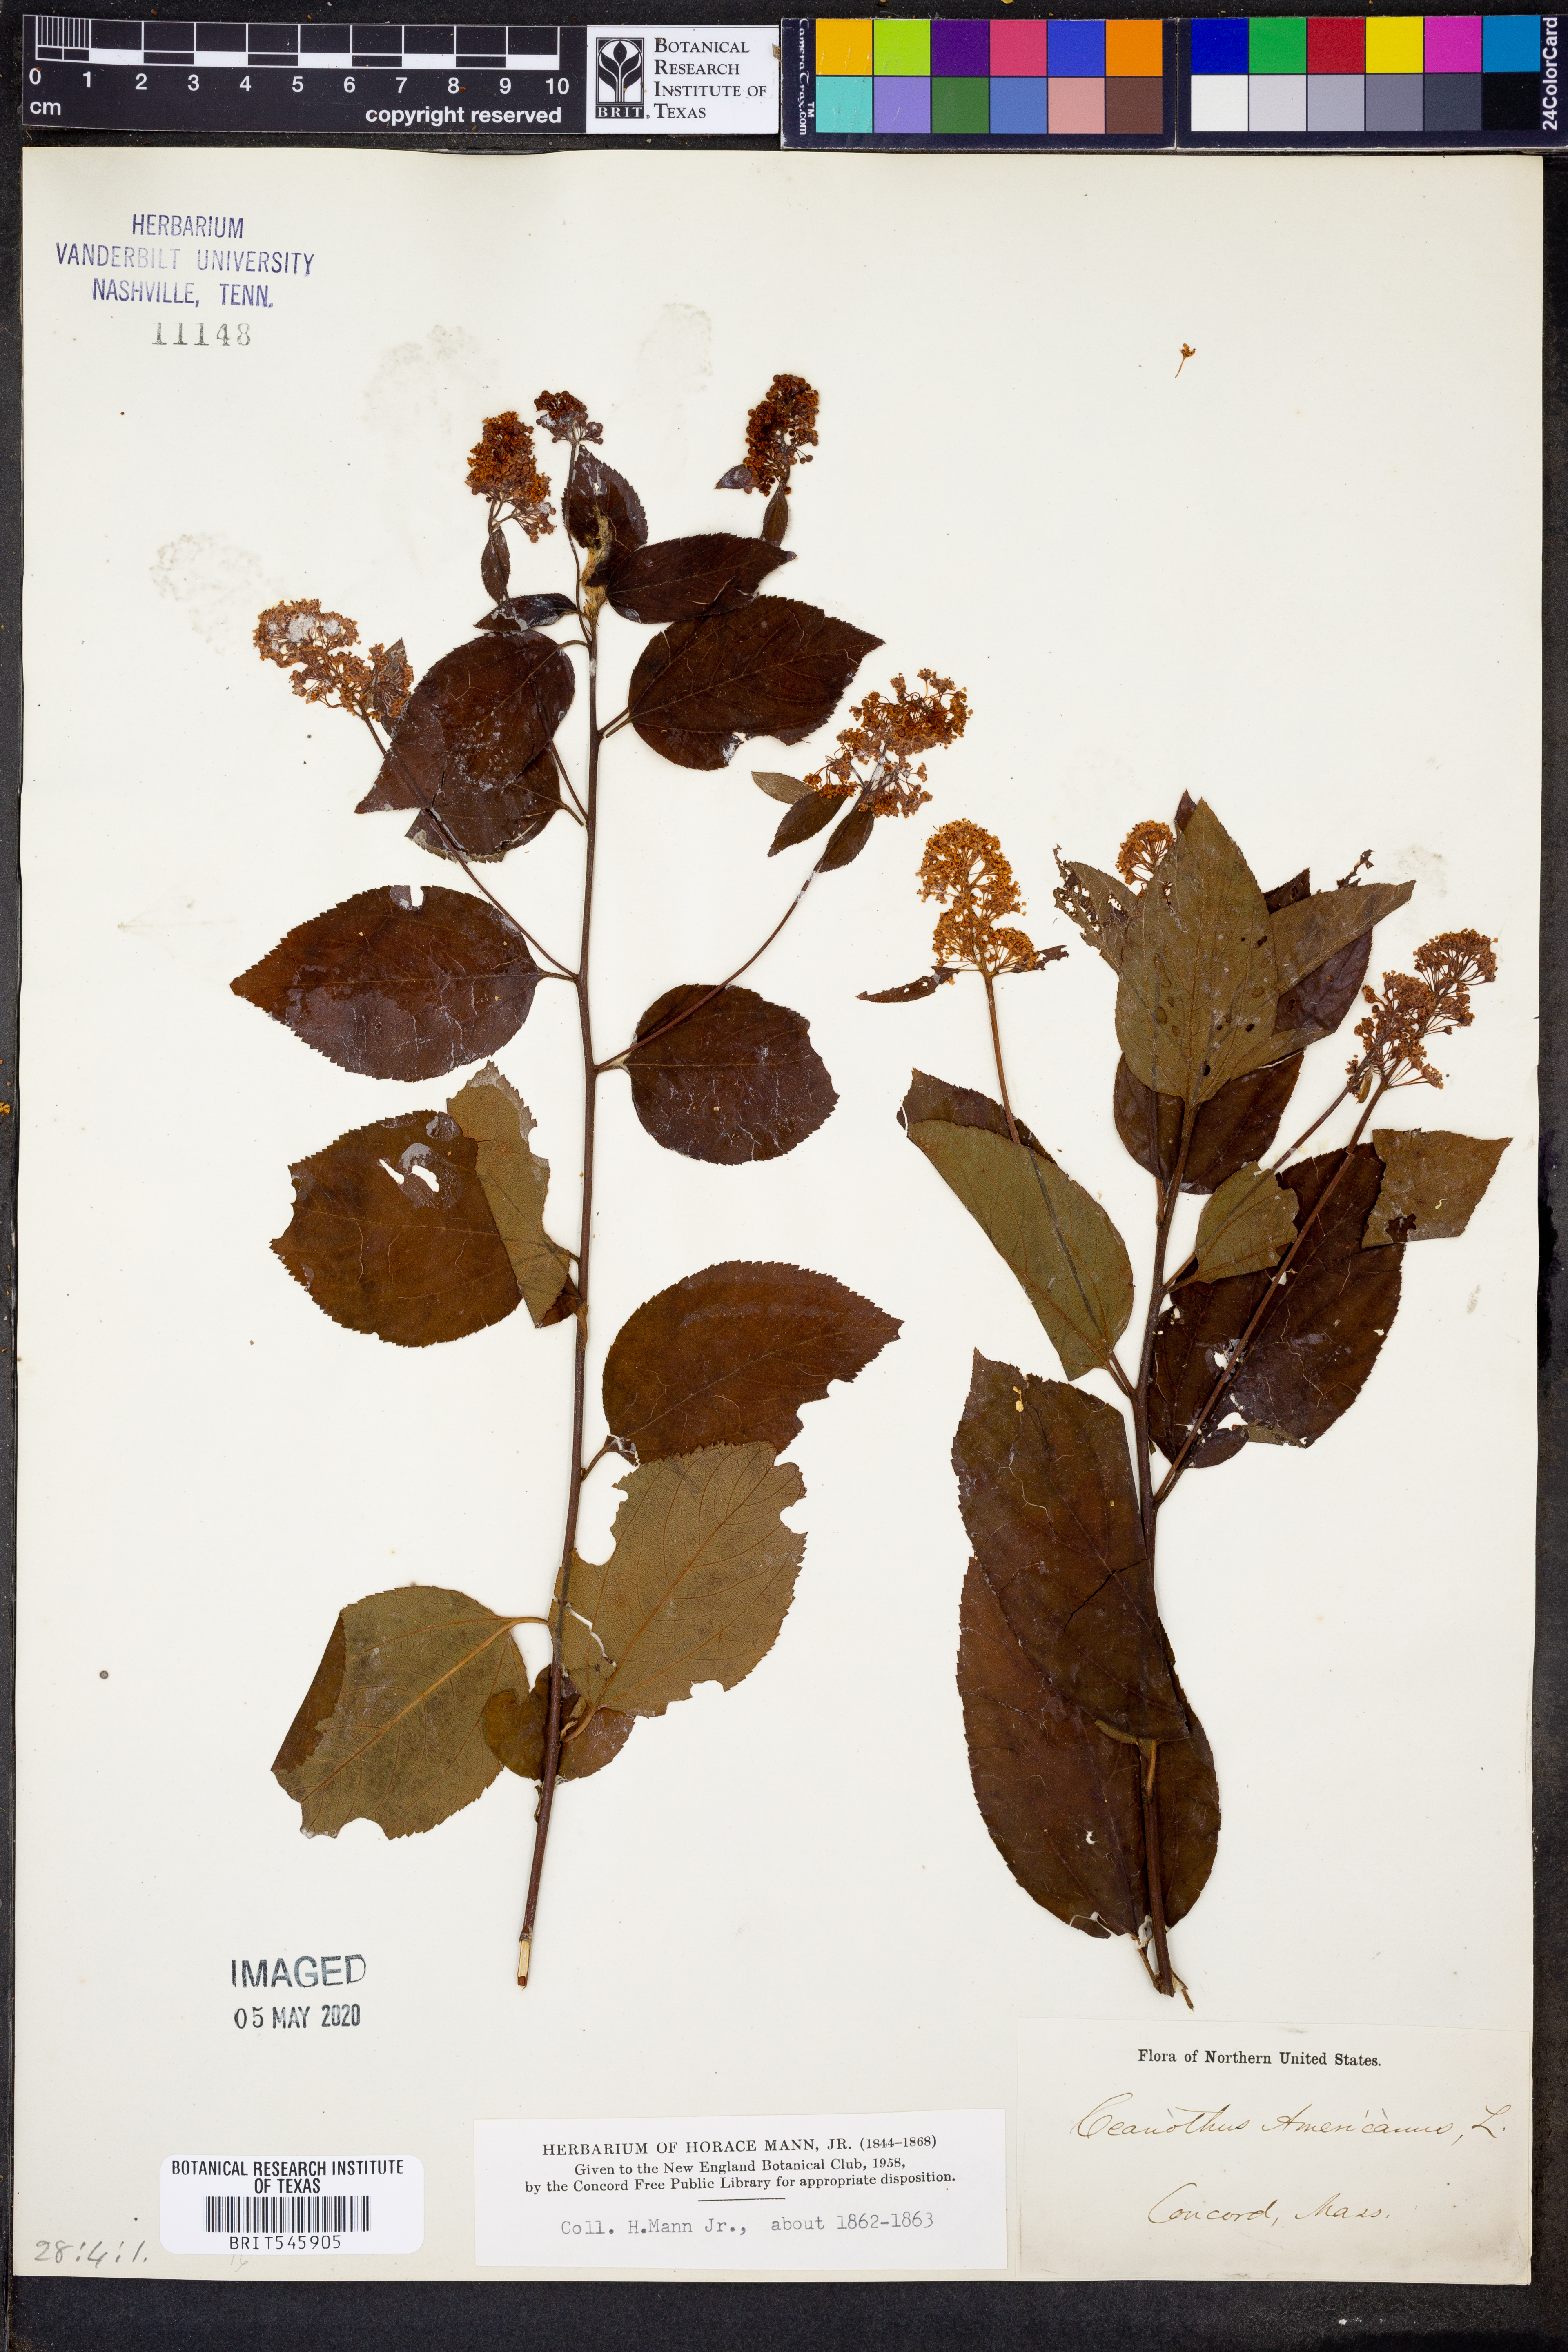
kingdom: Plantae
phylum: Tracheophyta
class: Magnoliopsida
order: Rosales
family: Rhamnaceae
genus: Ceanothus
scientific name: Ceanothus americanus
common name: Redroot
